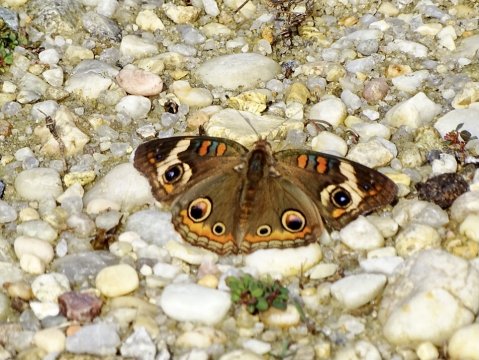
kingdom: Animalia
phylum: Arthropoda
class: Insecta
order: Lepidoptera
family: Nymphalidae
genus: Junonia
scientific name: Junonia coenia
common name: Common Buckeye
